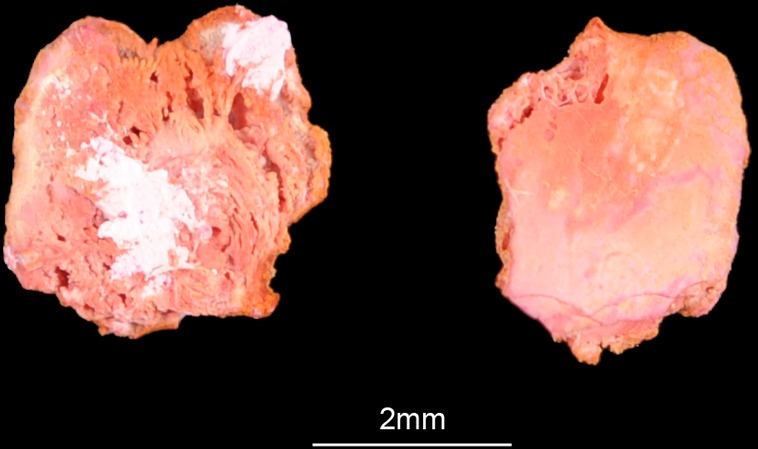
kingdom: Animalia
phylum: Chordata
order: Pleuronectiformes
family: Scophthalmidae
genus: Scophthalmus
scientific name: Scophthalmus maximus
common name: Turbot
